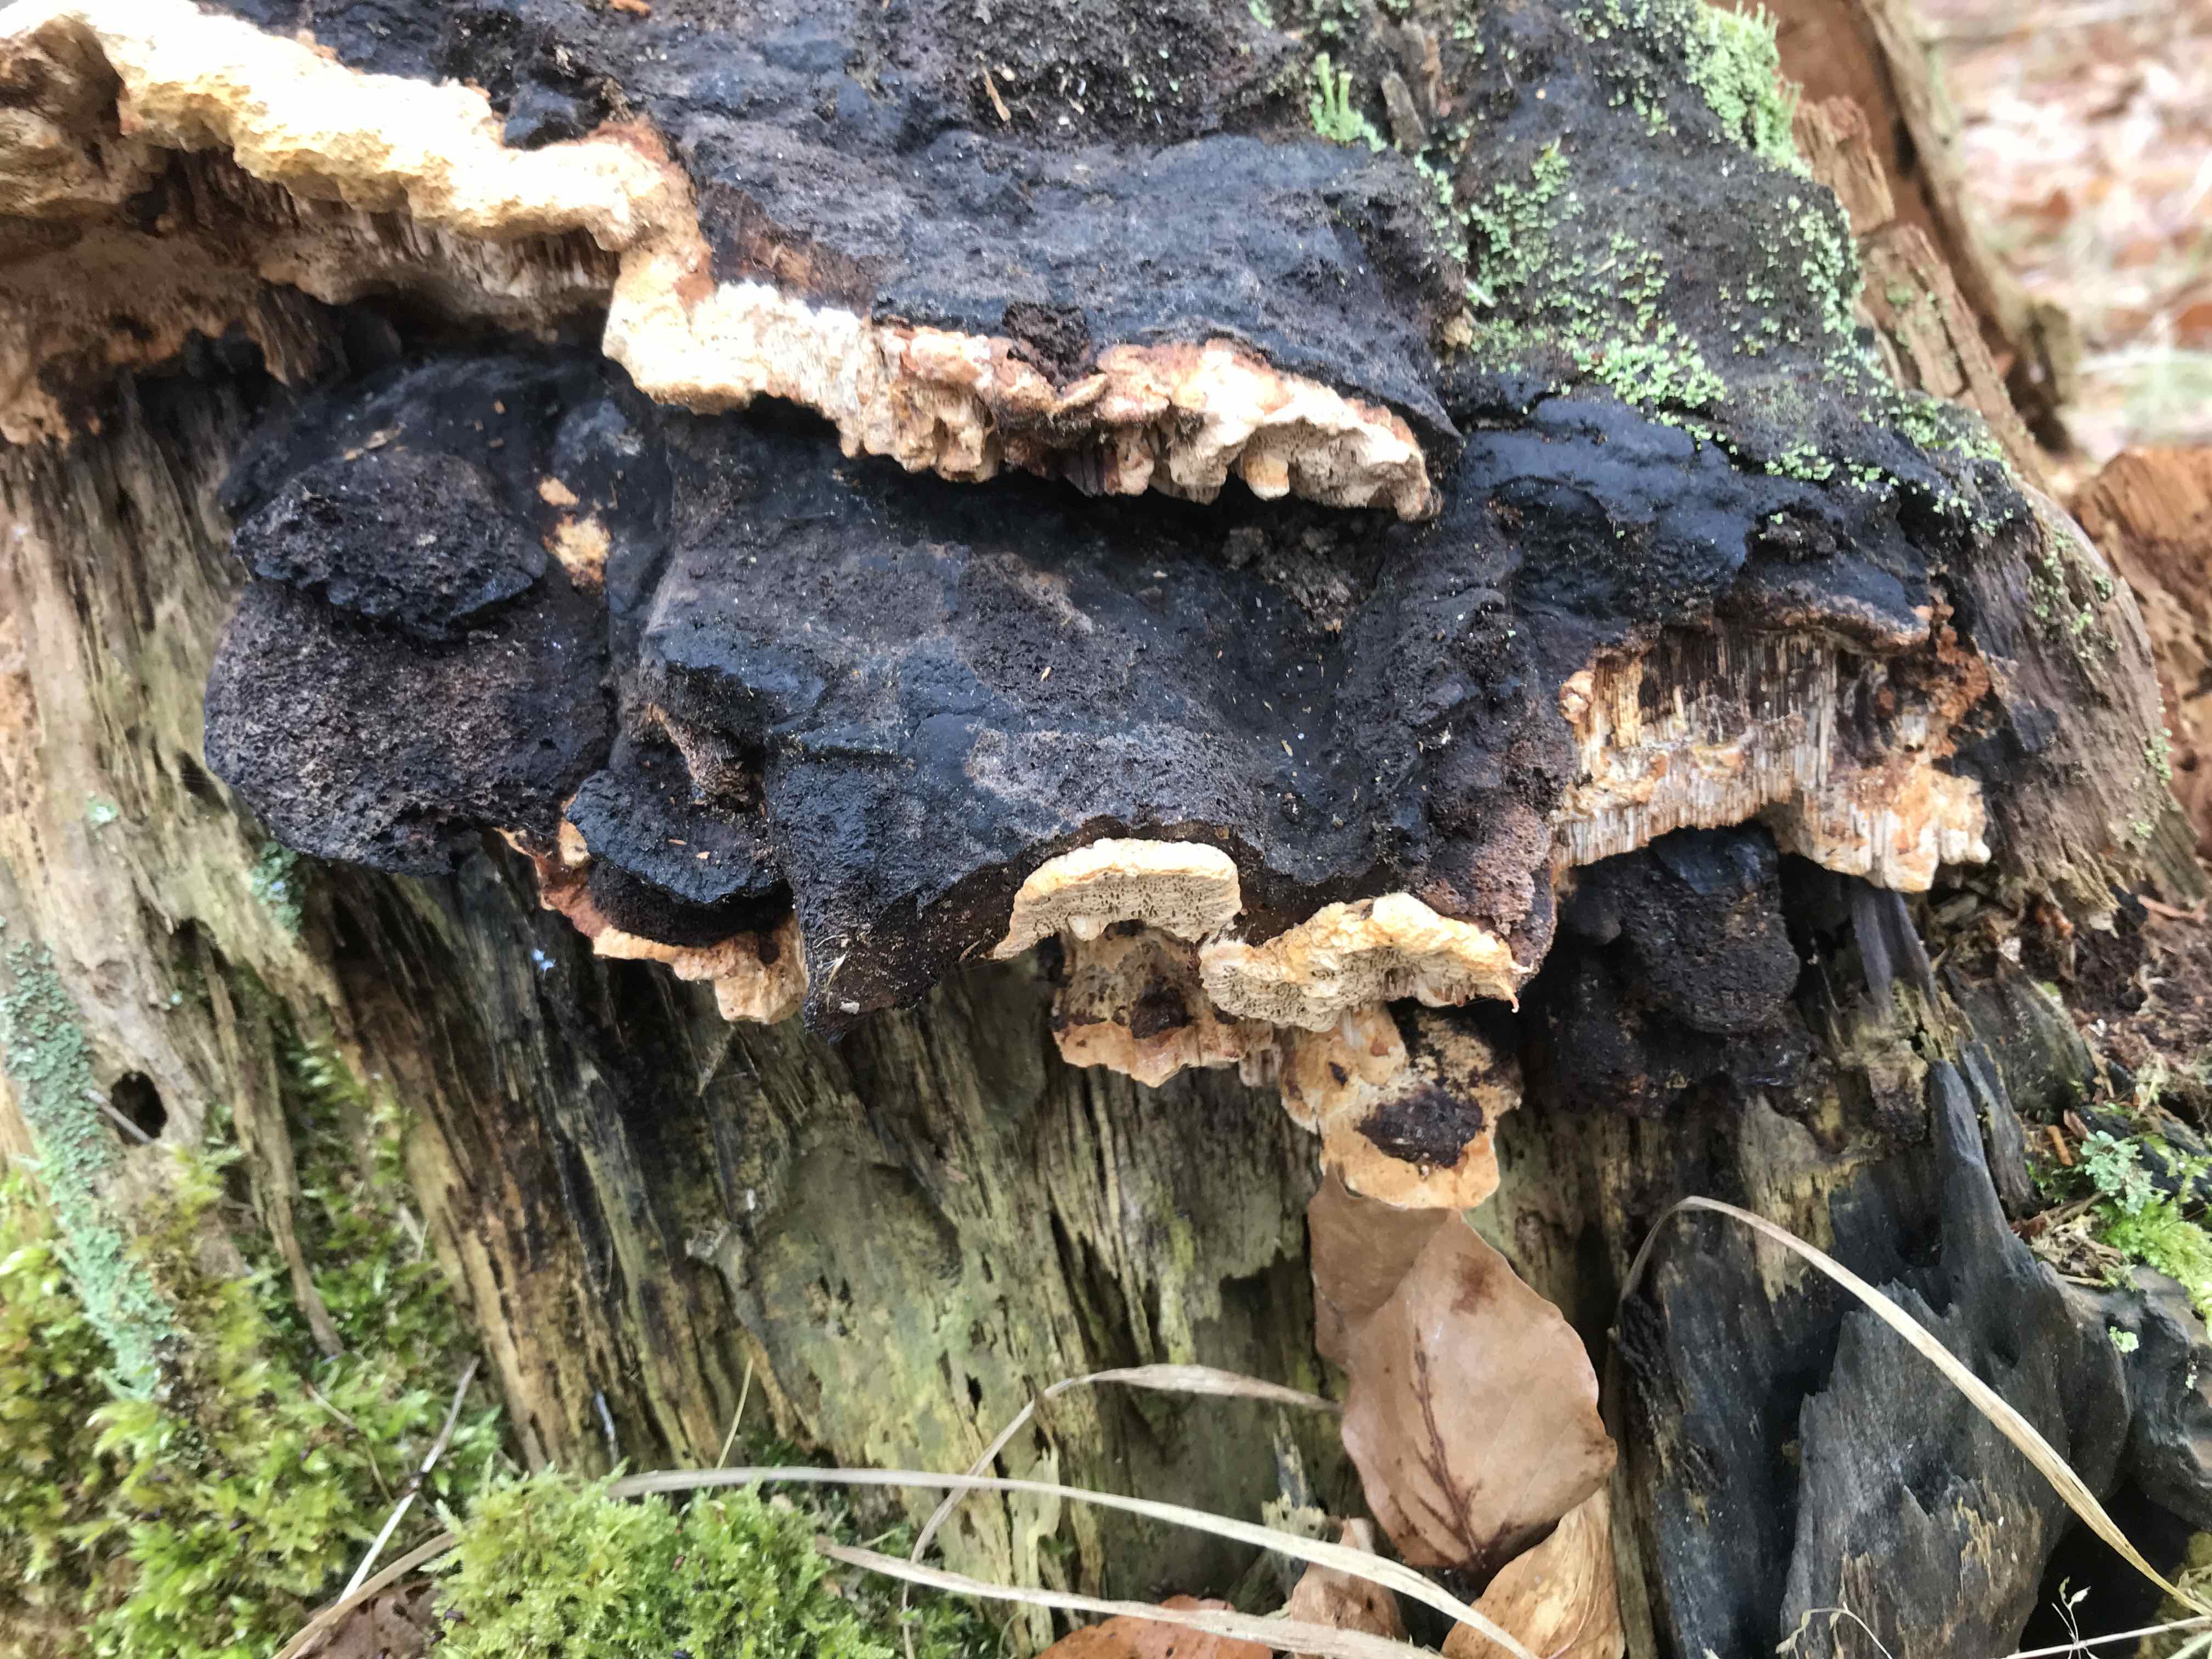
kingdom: Fungi
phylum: Basidiomycota
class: Agaricomycetes
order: Gloeophyllales
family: Gloeophyllaceae
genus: Gloeophyllum
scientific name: Gloeophyllum odoratum
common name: duftende korkhat
